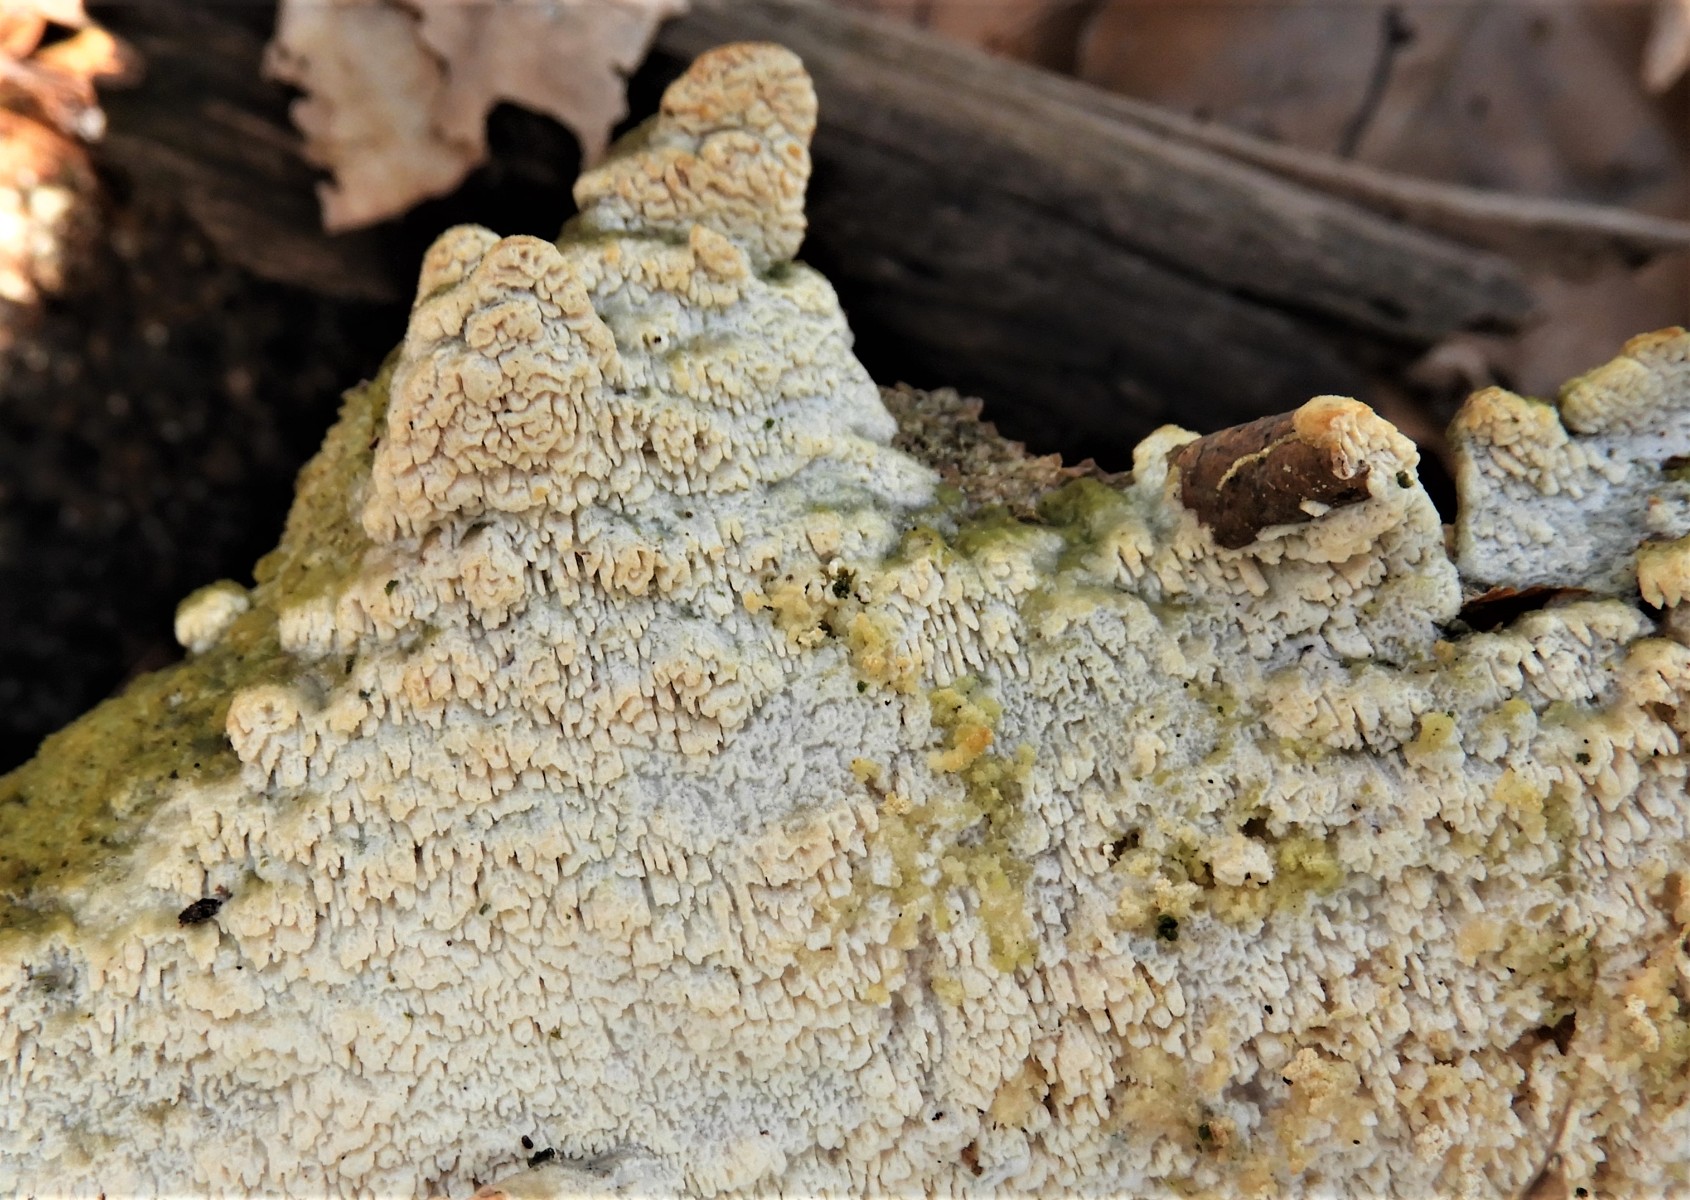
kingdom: Fungi
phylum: Basidiomycota
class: Agaricomycetes
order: Hymenochaetales
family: Schizoporaceae
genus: Schizopora
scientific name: Schizopora paradoxa
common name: hvid tandsvamp
